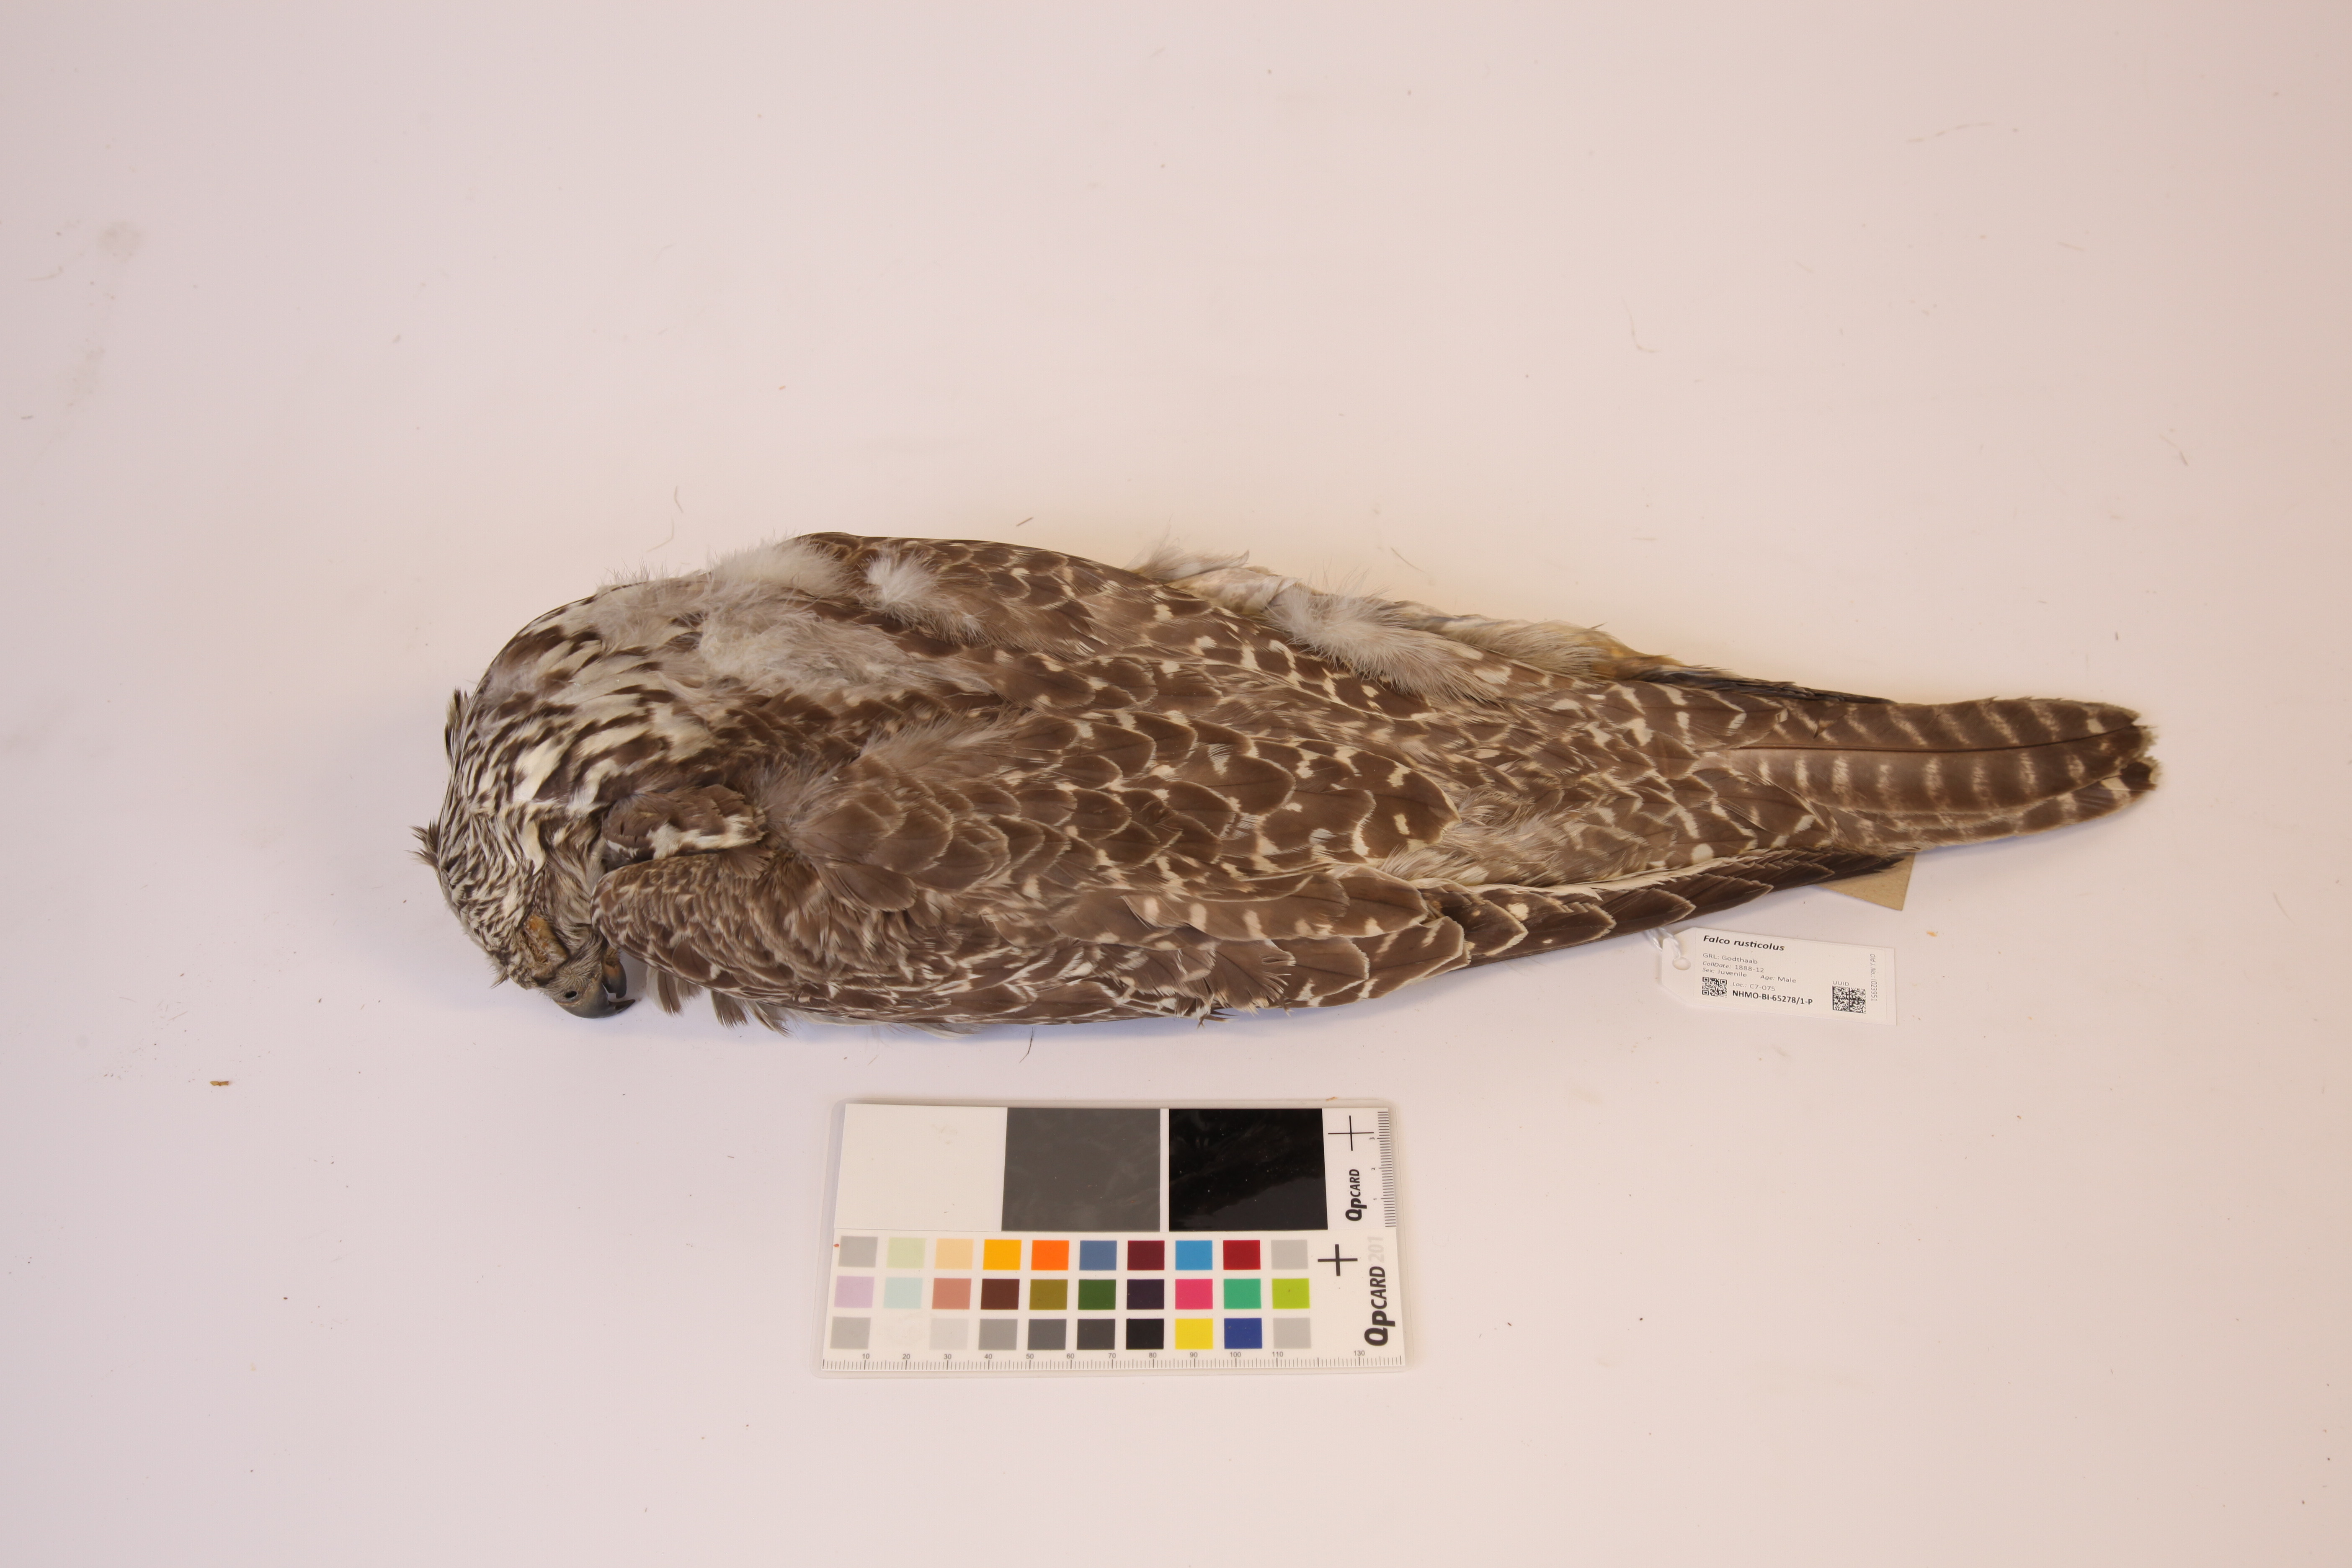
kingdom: Animalia
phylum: Chordata
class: Aves
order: Falconiformes
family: Falconidae
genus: Falco
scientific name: Falco rusticolus
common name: Gyrfalcon
